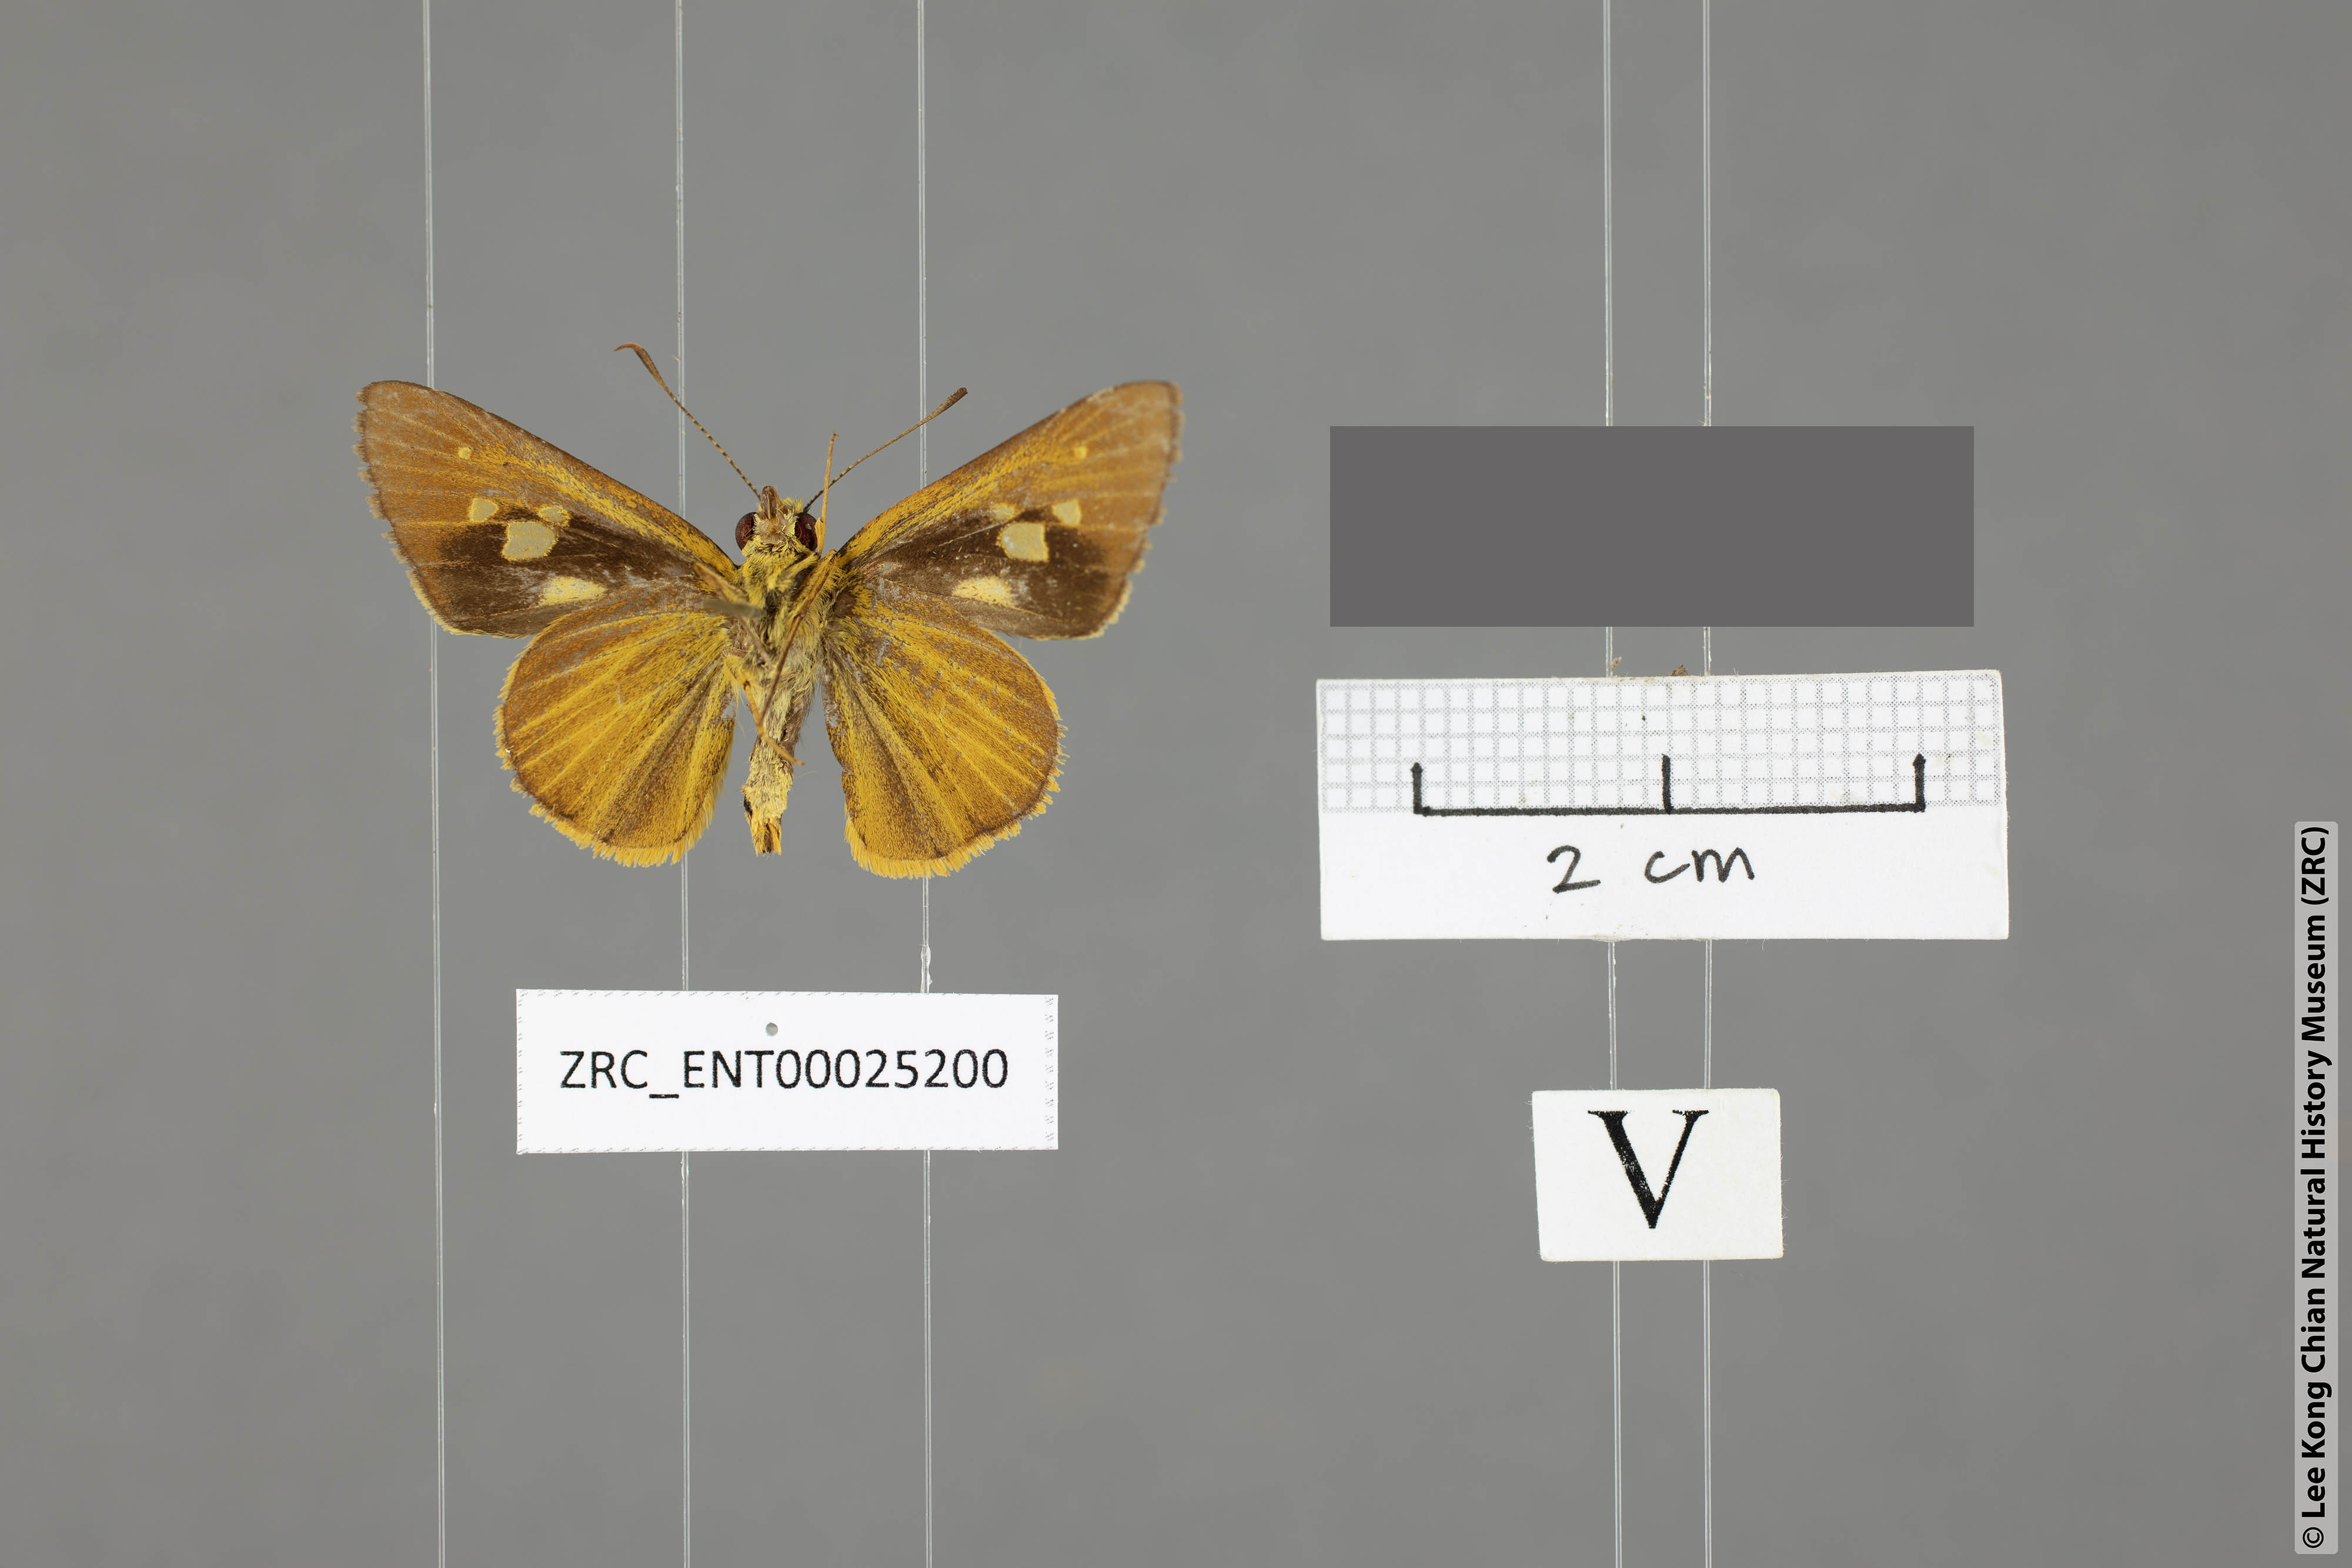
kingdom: Animalia
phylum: Arthropoda
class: Insecta
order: Lepidoptera
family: Hesperiidae
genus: Xanthoneura
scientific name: Xanthoneura corissa
